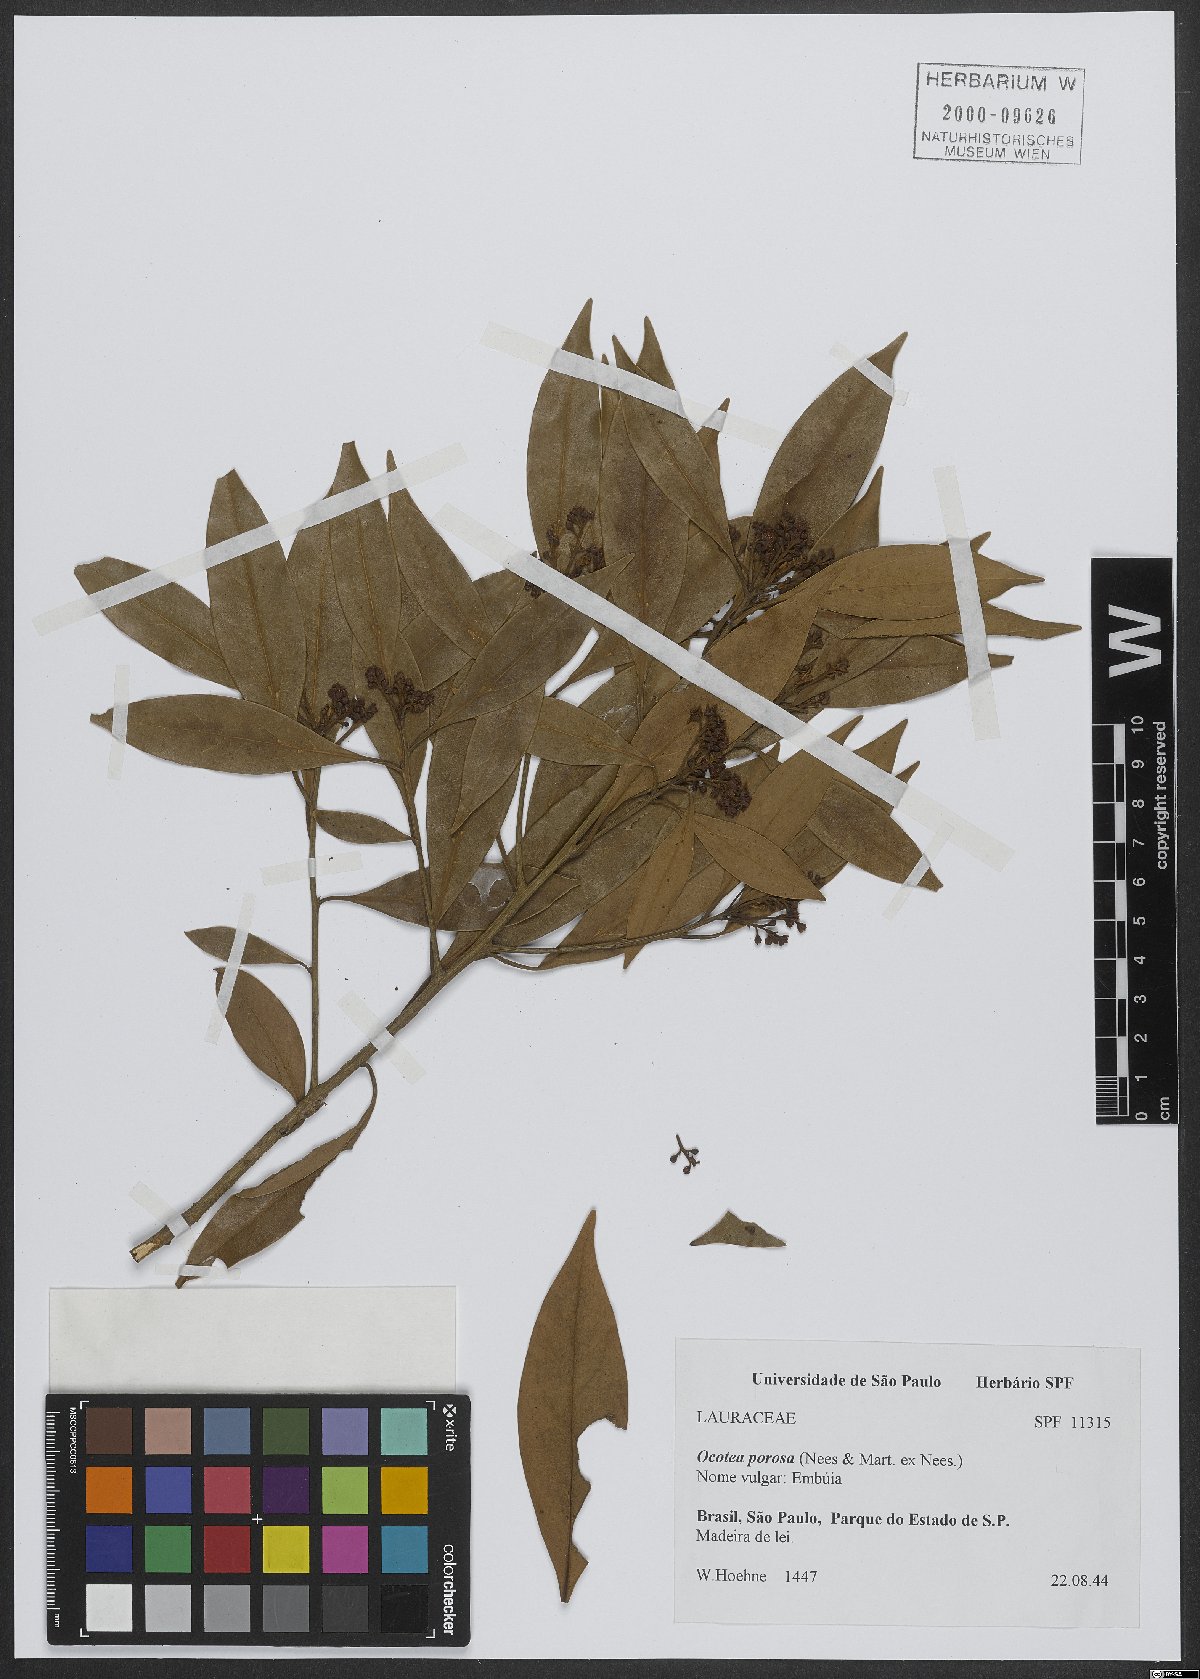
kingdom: Plantae
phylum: Tracheophyta
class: Magnoliopsida
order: Laurales
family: Lauraceae
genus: Ocotea
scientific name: Ocotea porosa
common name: Brazilian-walnut
